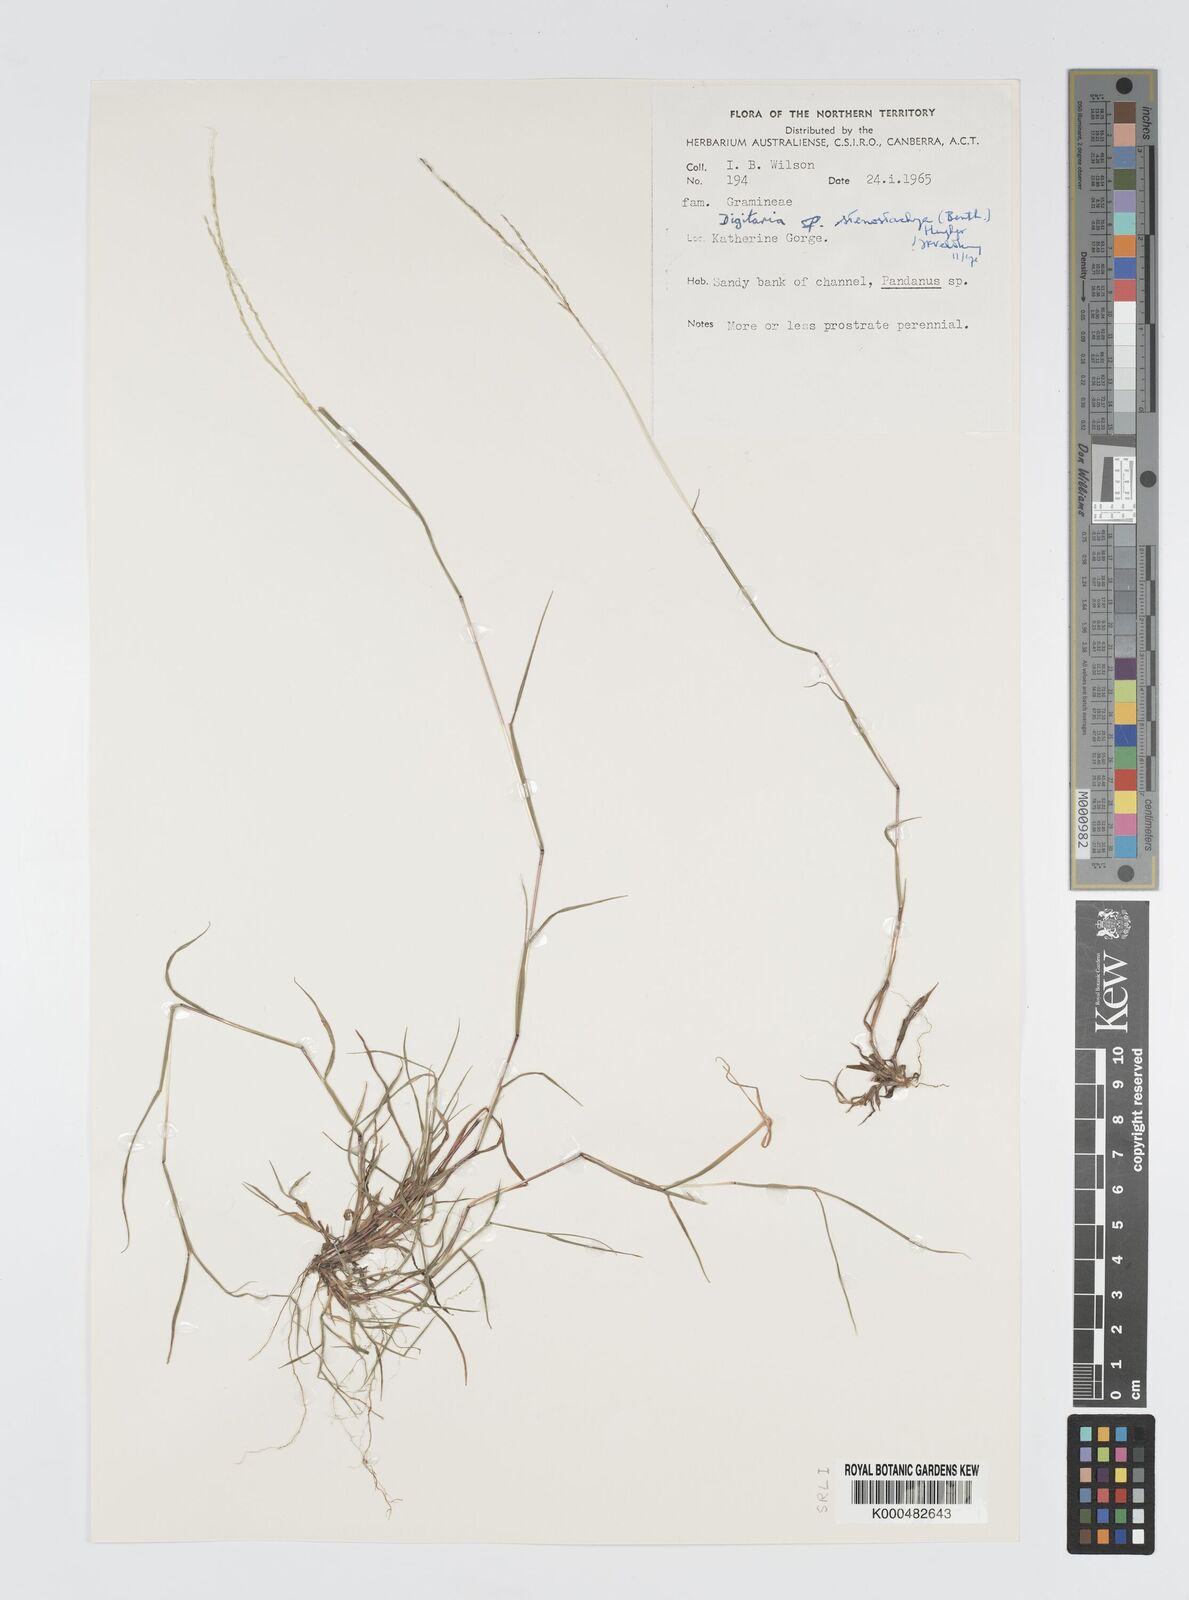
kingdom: Plantae
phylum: Tracheophyta
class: Liliopsida
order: Poales
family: Poaceae
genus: Digitaria
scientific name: Digitaria stenostachya
